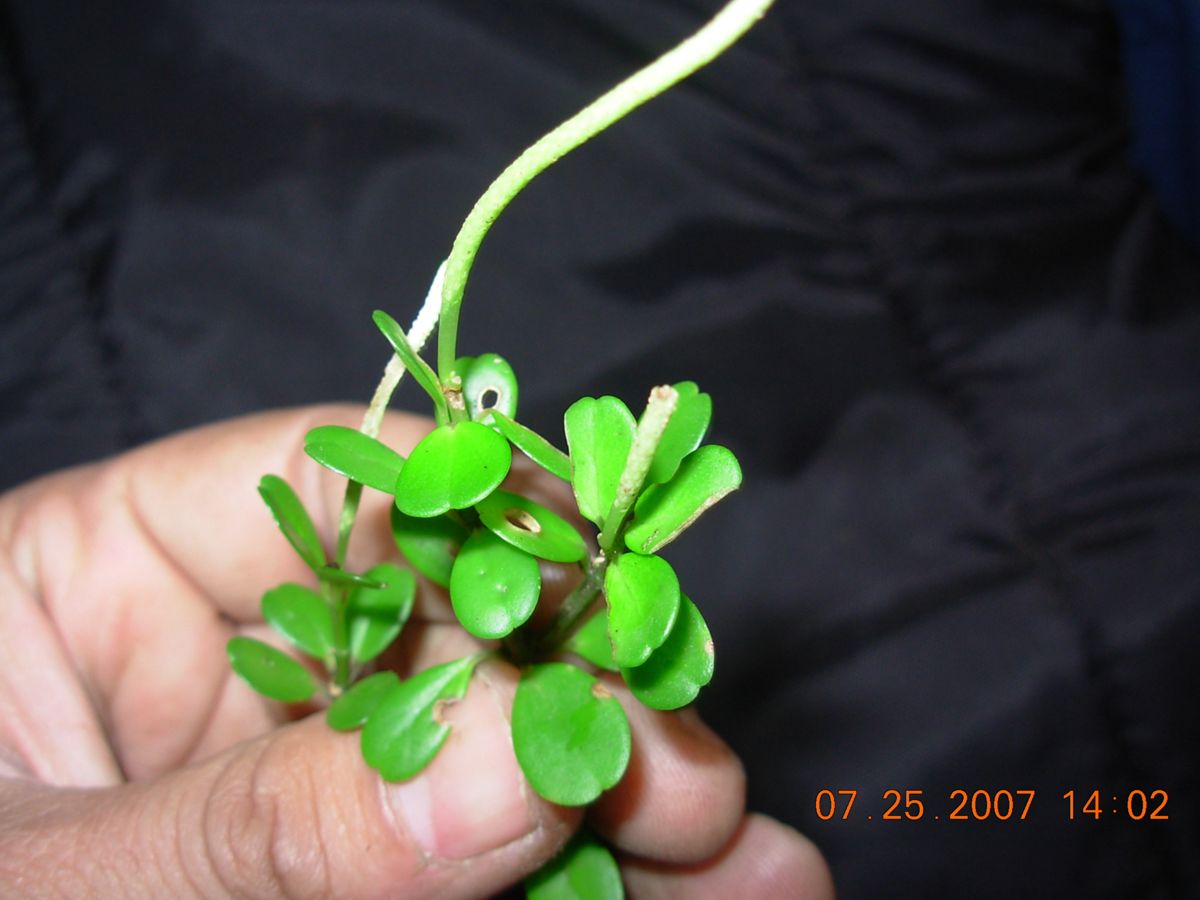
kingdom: Plantae
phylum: Tracheophyta
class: Magnoliopsida
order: Piperales
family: Piperaceae
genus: Peperomia
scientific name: Peperomia quadrifolia
